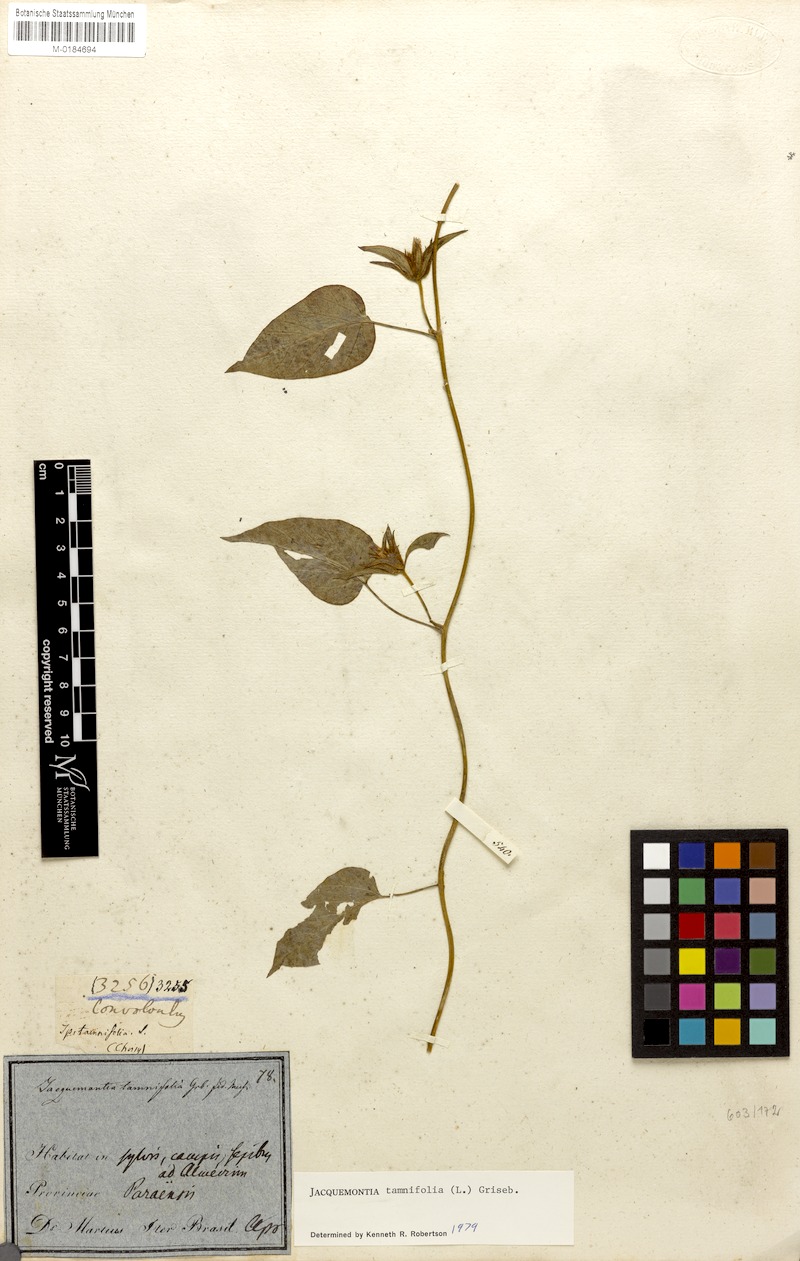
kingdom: Plantae
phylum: Tracheophyta
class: Magnoliopsida
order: Solanales
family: Convolvulaceae
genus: Jacquemontia
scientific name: Jacquemontia tamnifolia
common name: Hairy clustervine
